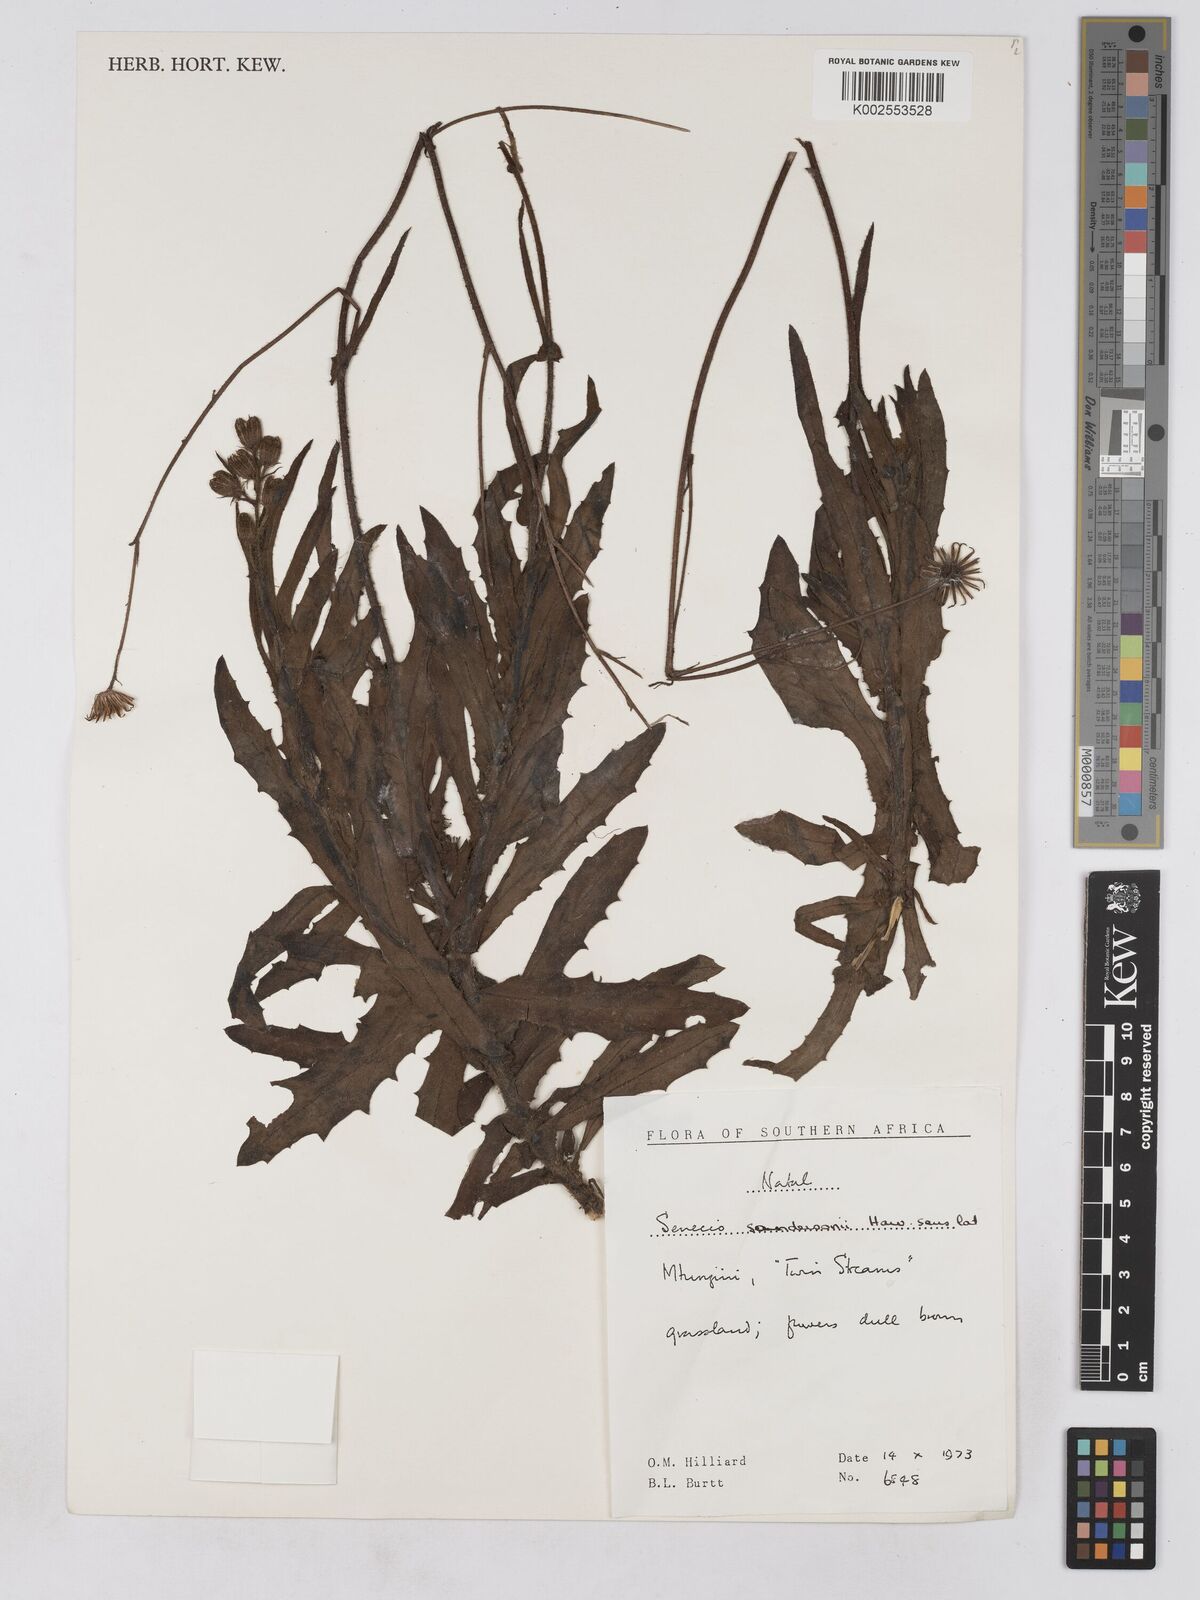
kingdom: Plantae
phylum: Tracheophyta
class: Magnoliopsida
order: Asterales
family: Asteraceae
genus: Senecio
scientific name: Senecio sandersonii
